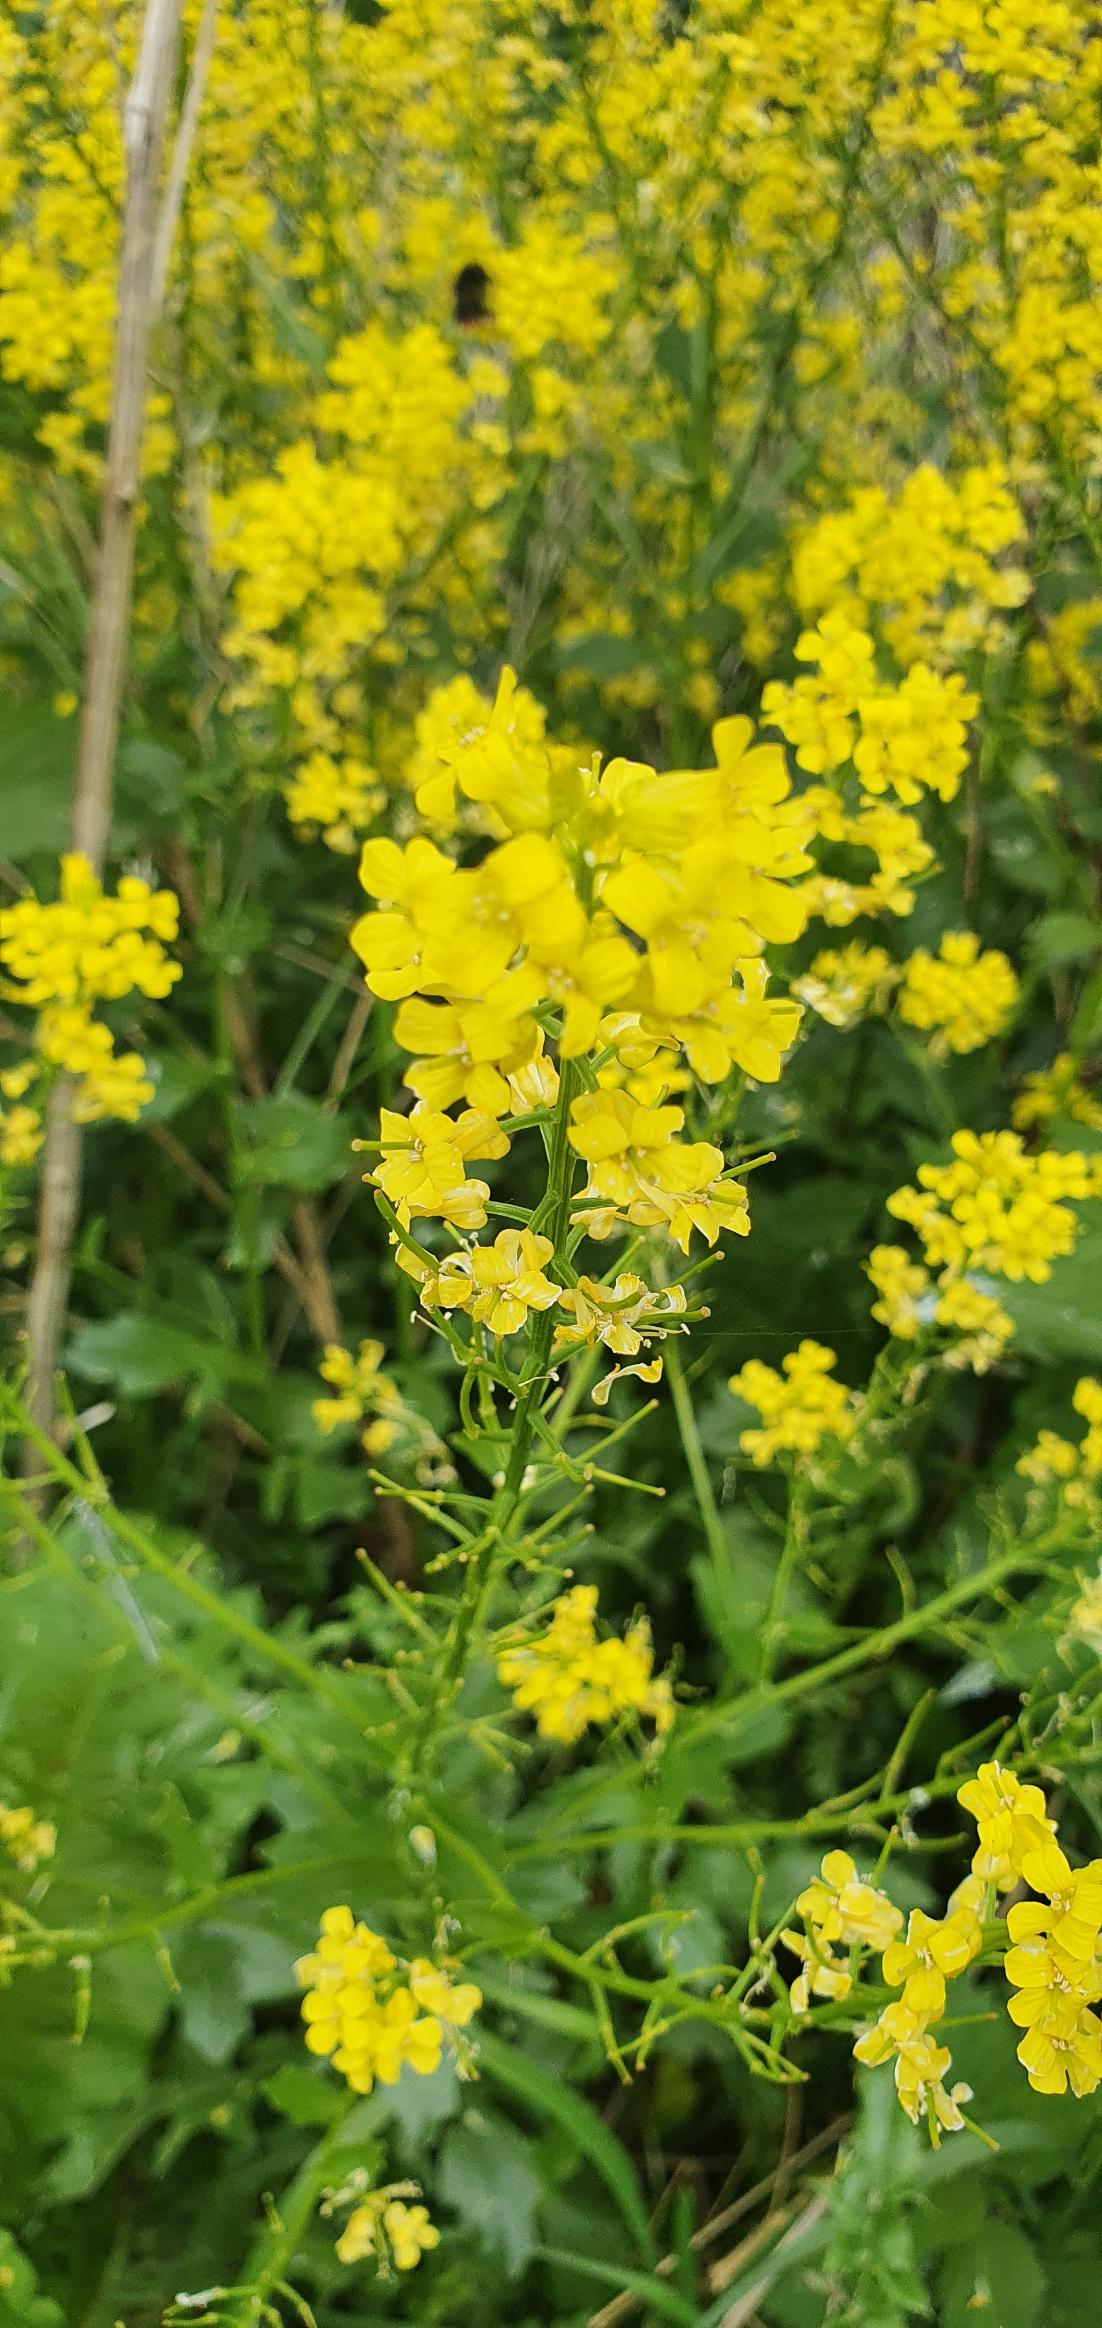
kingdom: Plantae
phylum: Tracheophyta
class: Magnoliopsida
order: Brassicales
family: Brassicaceae
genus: Barbarea
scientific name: Barbarea vulgaris
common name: Udspærret vinterkarse
